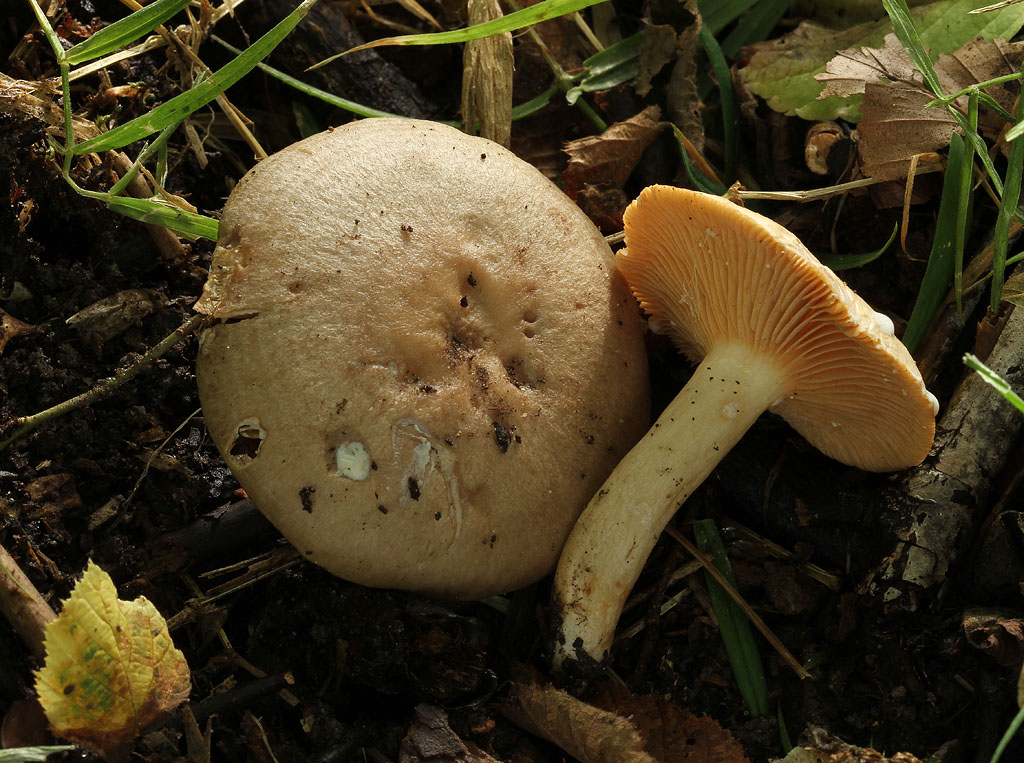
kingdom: Fungi
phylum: Basidiomycota
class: Agaricomycetes
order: Russulales
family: Russulaceae
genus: Lactarius
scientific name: Lactarius pyrogalus
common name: hassel-mælkehat
